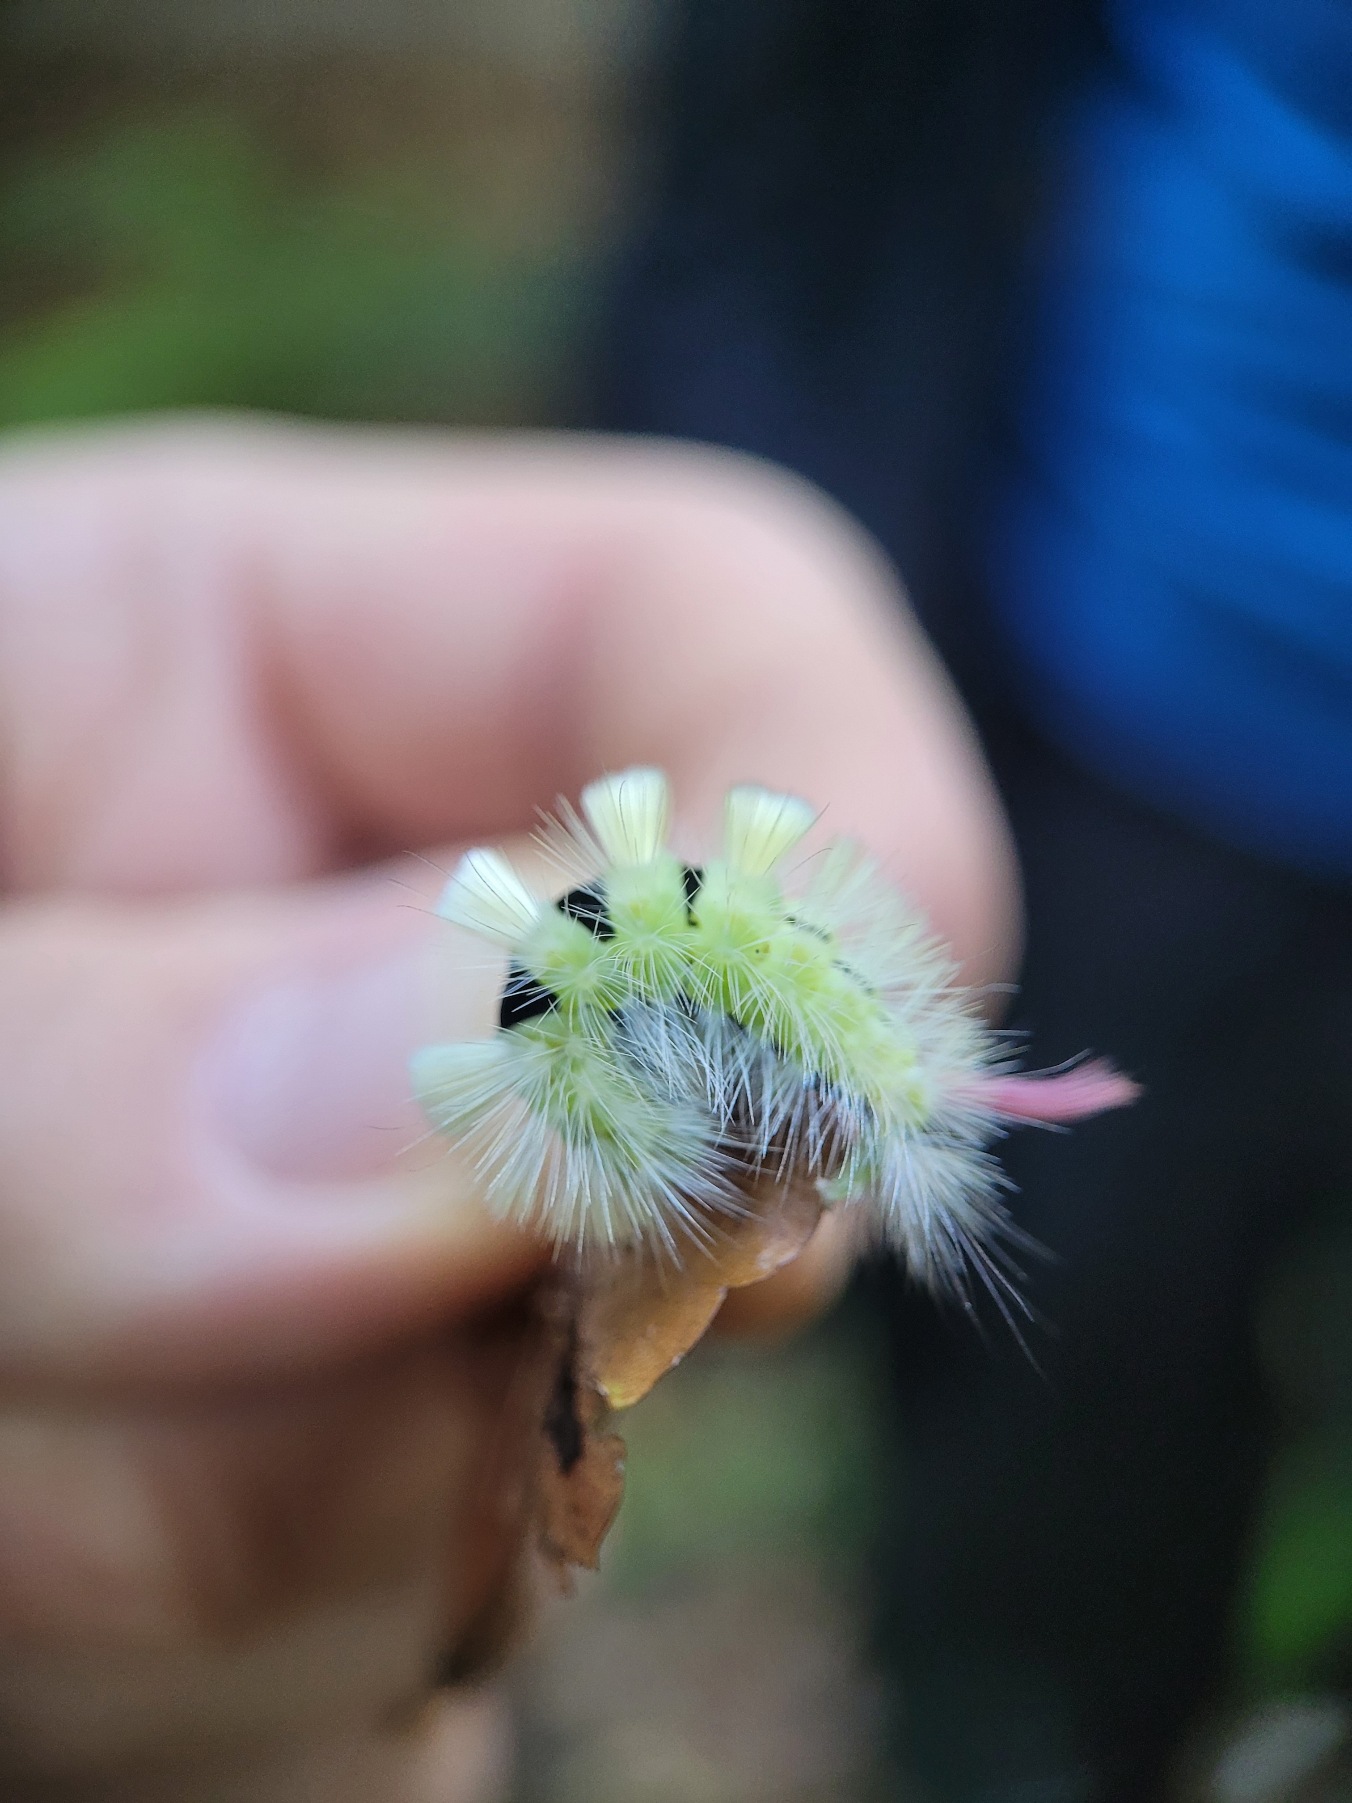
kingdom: Animalia
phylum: Arthropoda
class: Insecta
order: Lepidoptera
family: Erebidae
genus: Calliteara
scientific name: Calliteara pudibunda
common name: Bøgenonne
